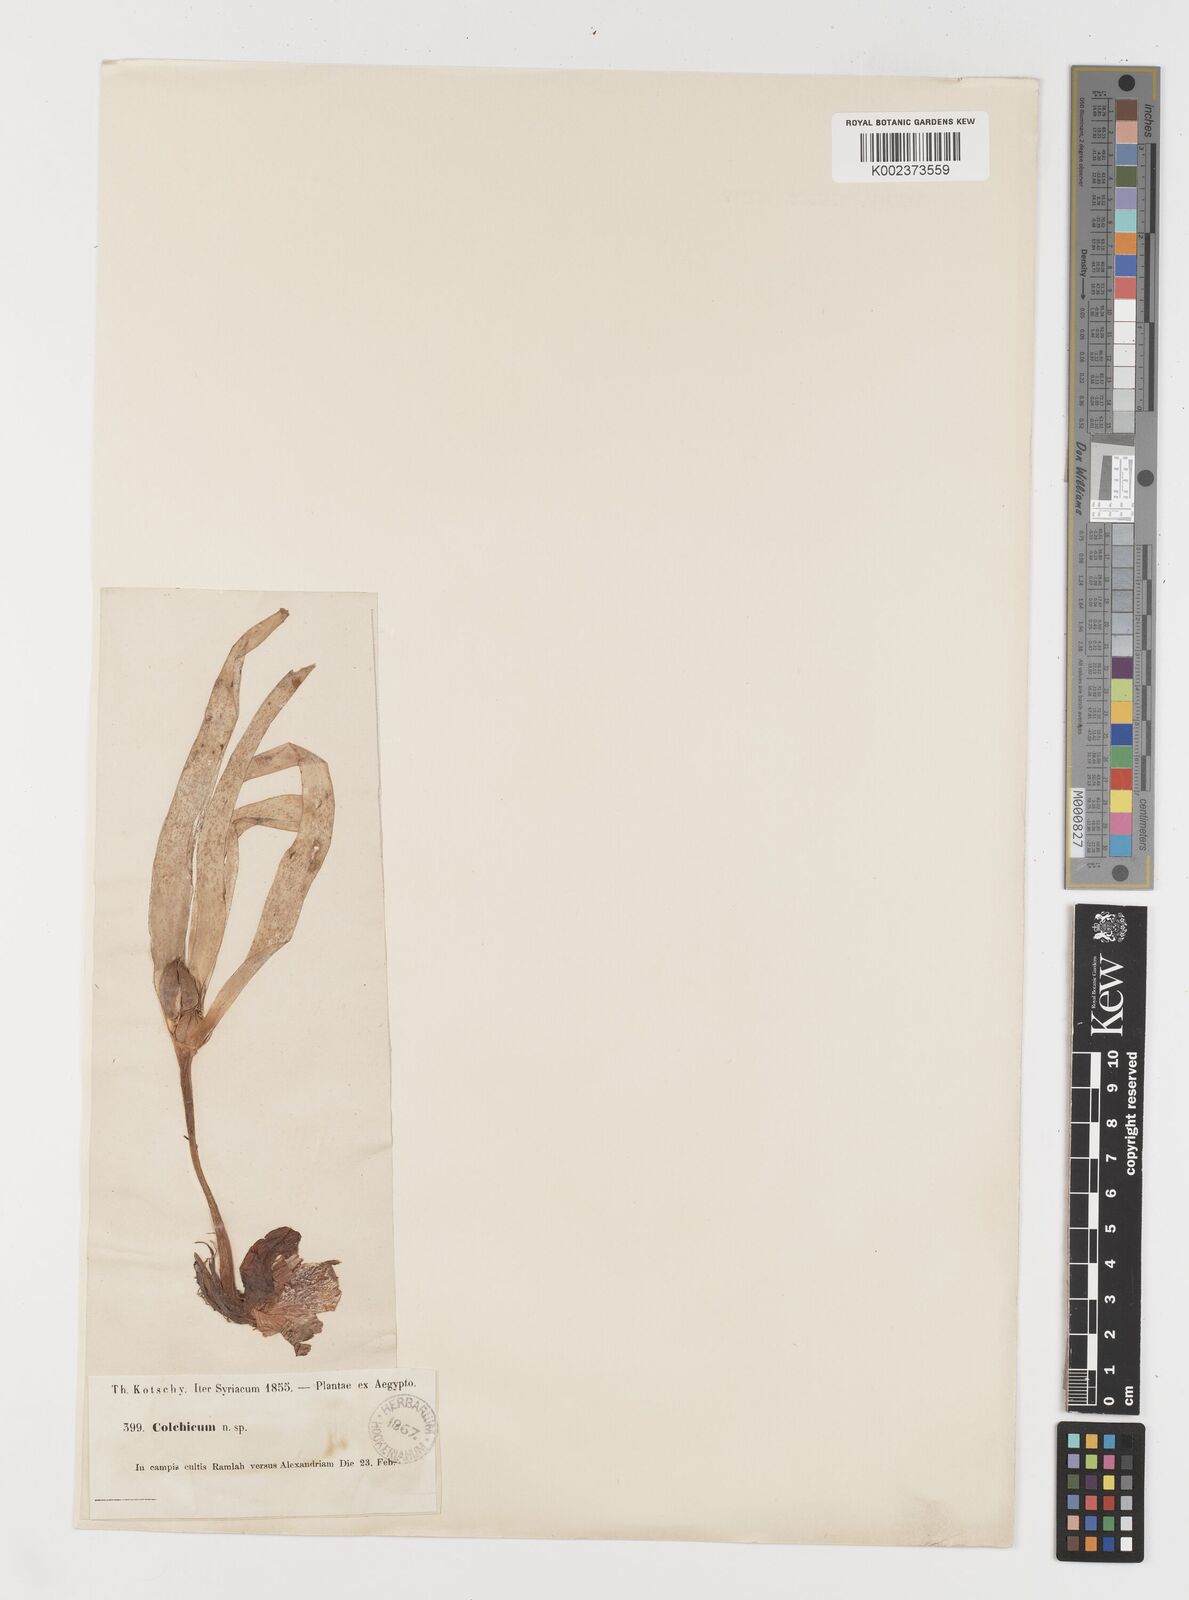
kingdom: Plantae
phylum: Tracheophyta
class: Liliopsida
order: Liliales
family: Colchicaceae
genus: Colchicum
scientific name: Colchicum ritchii
